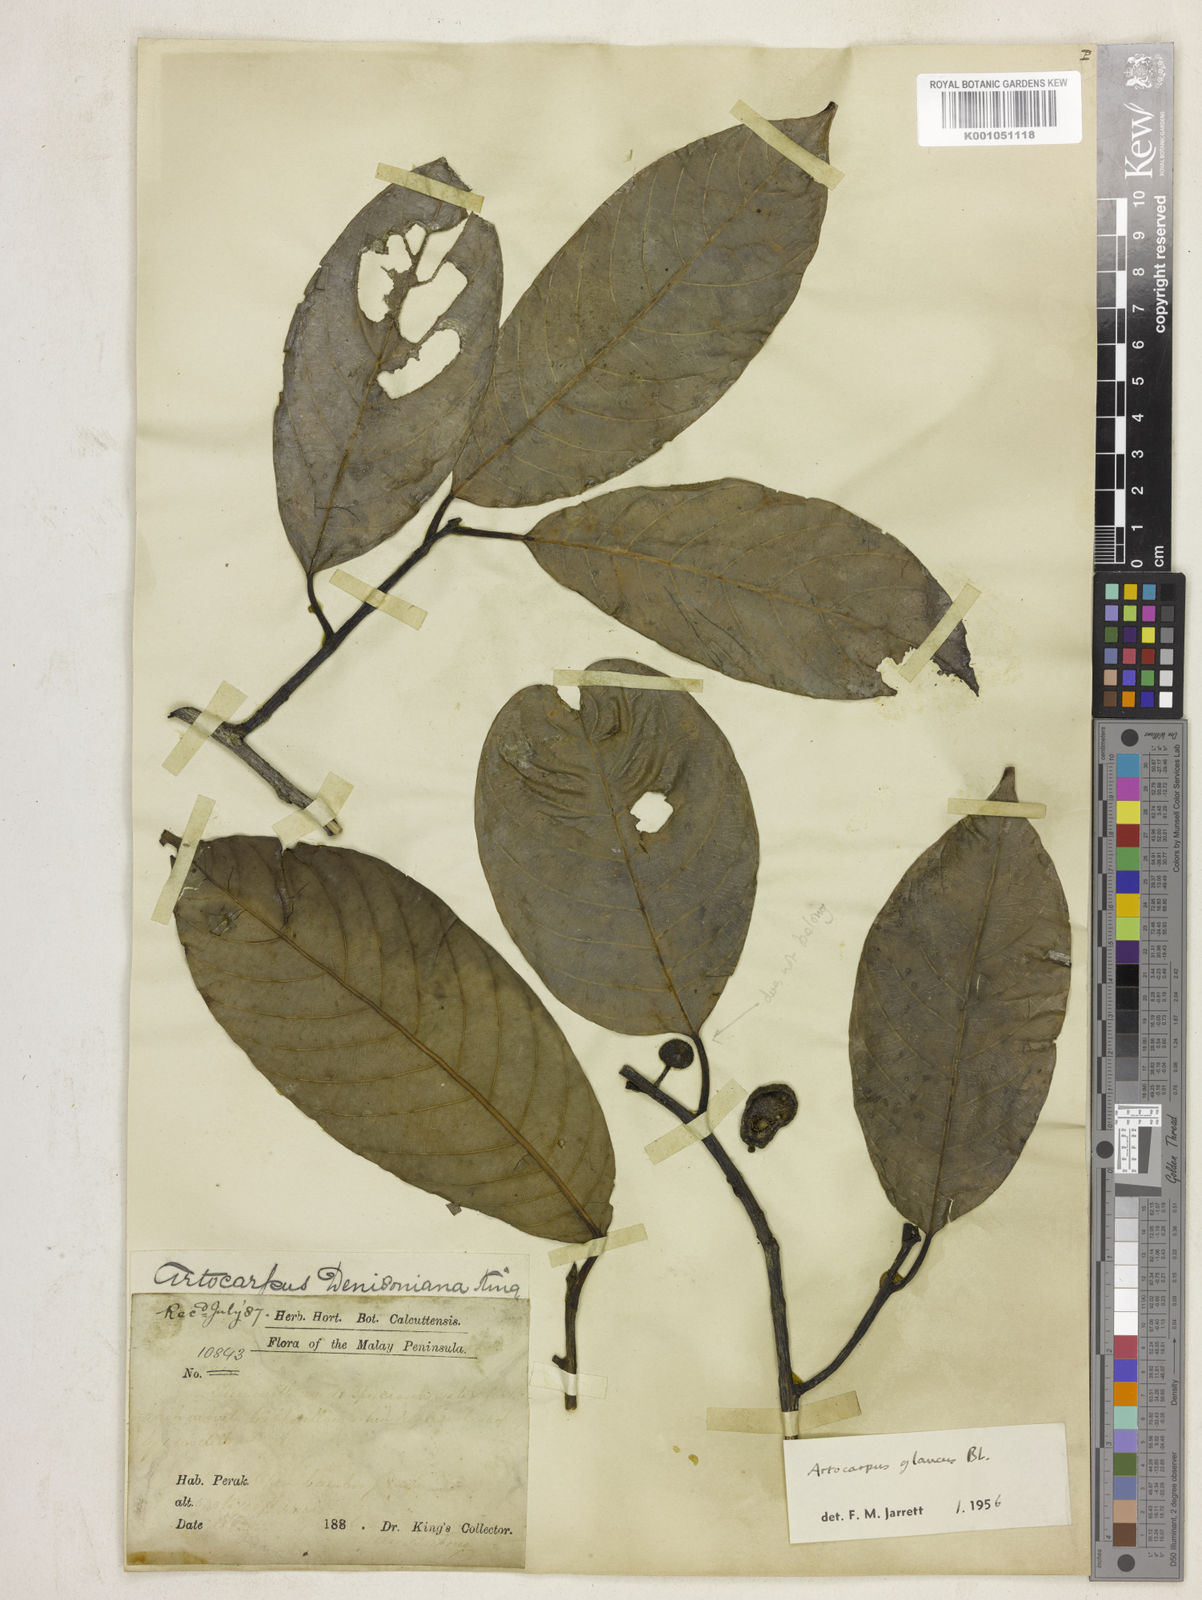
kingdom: Plantae
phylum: Tracheophyta
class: Magnoliopsida
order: Rosales
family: Moraceae
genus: Artocarpus
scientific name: Artocarpus glaucus
